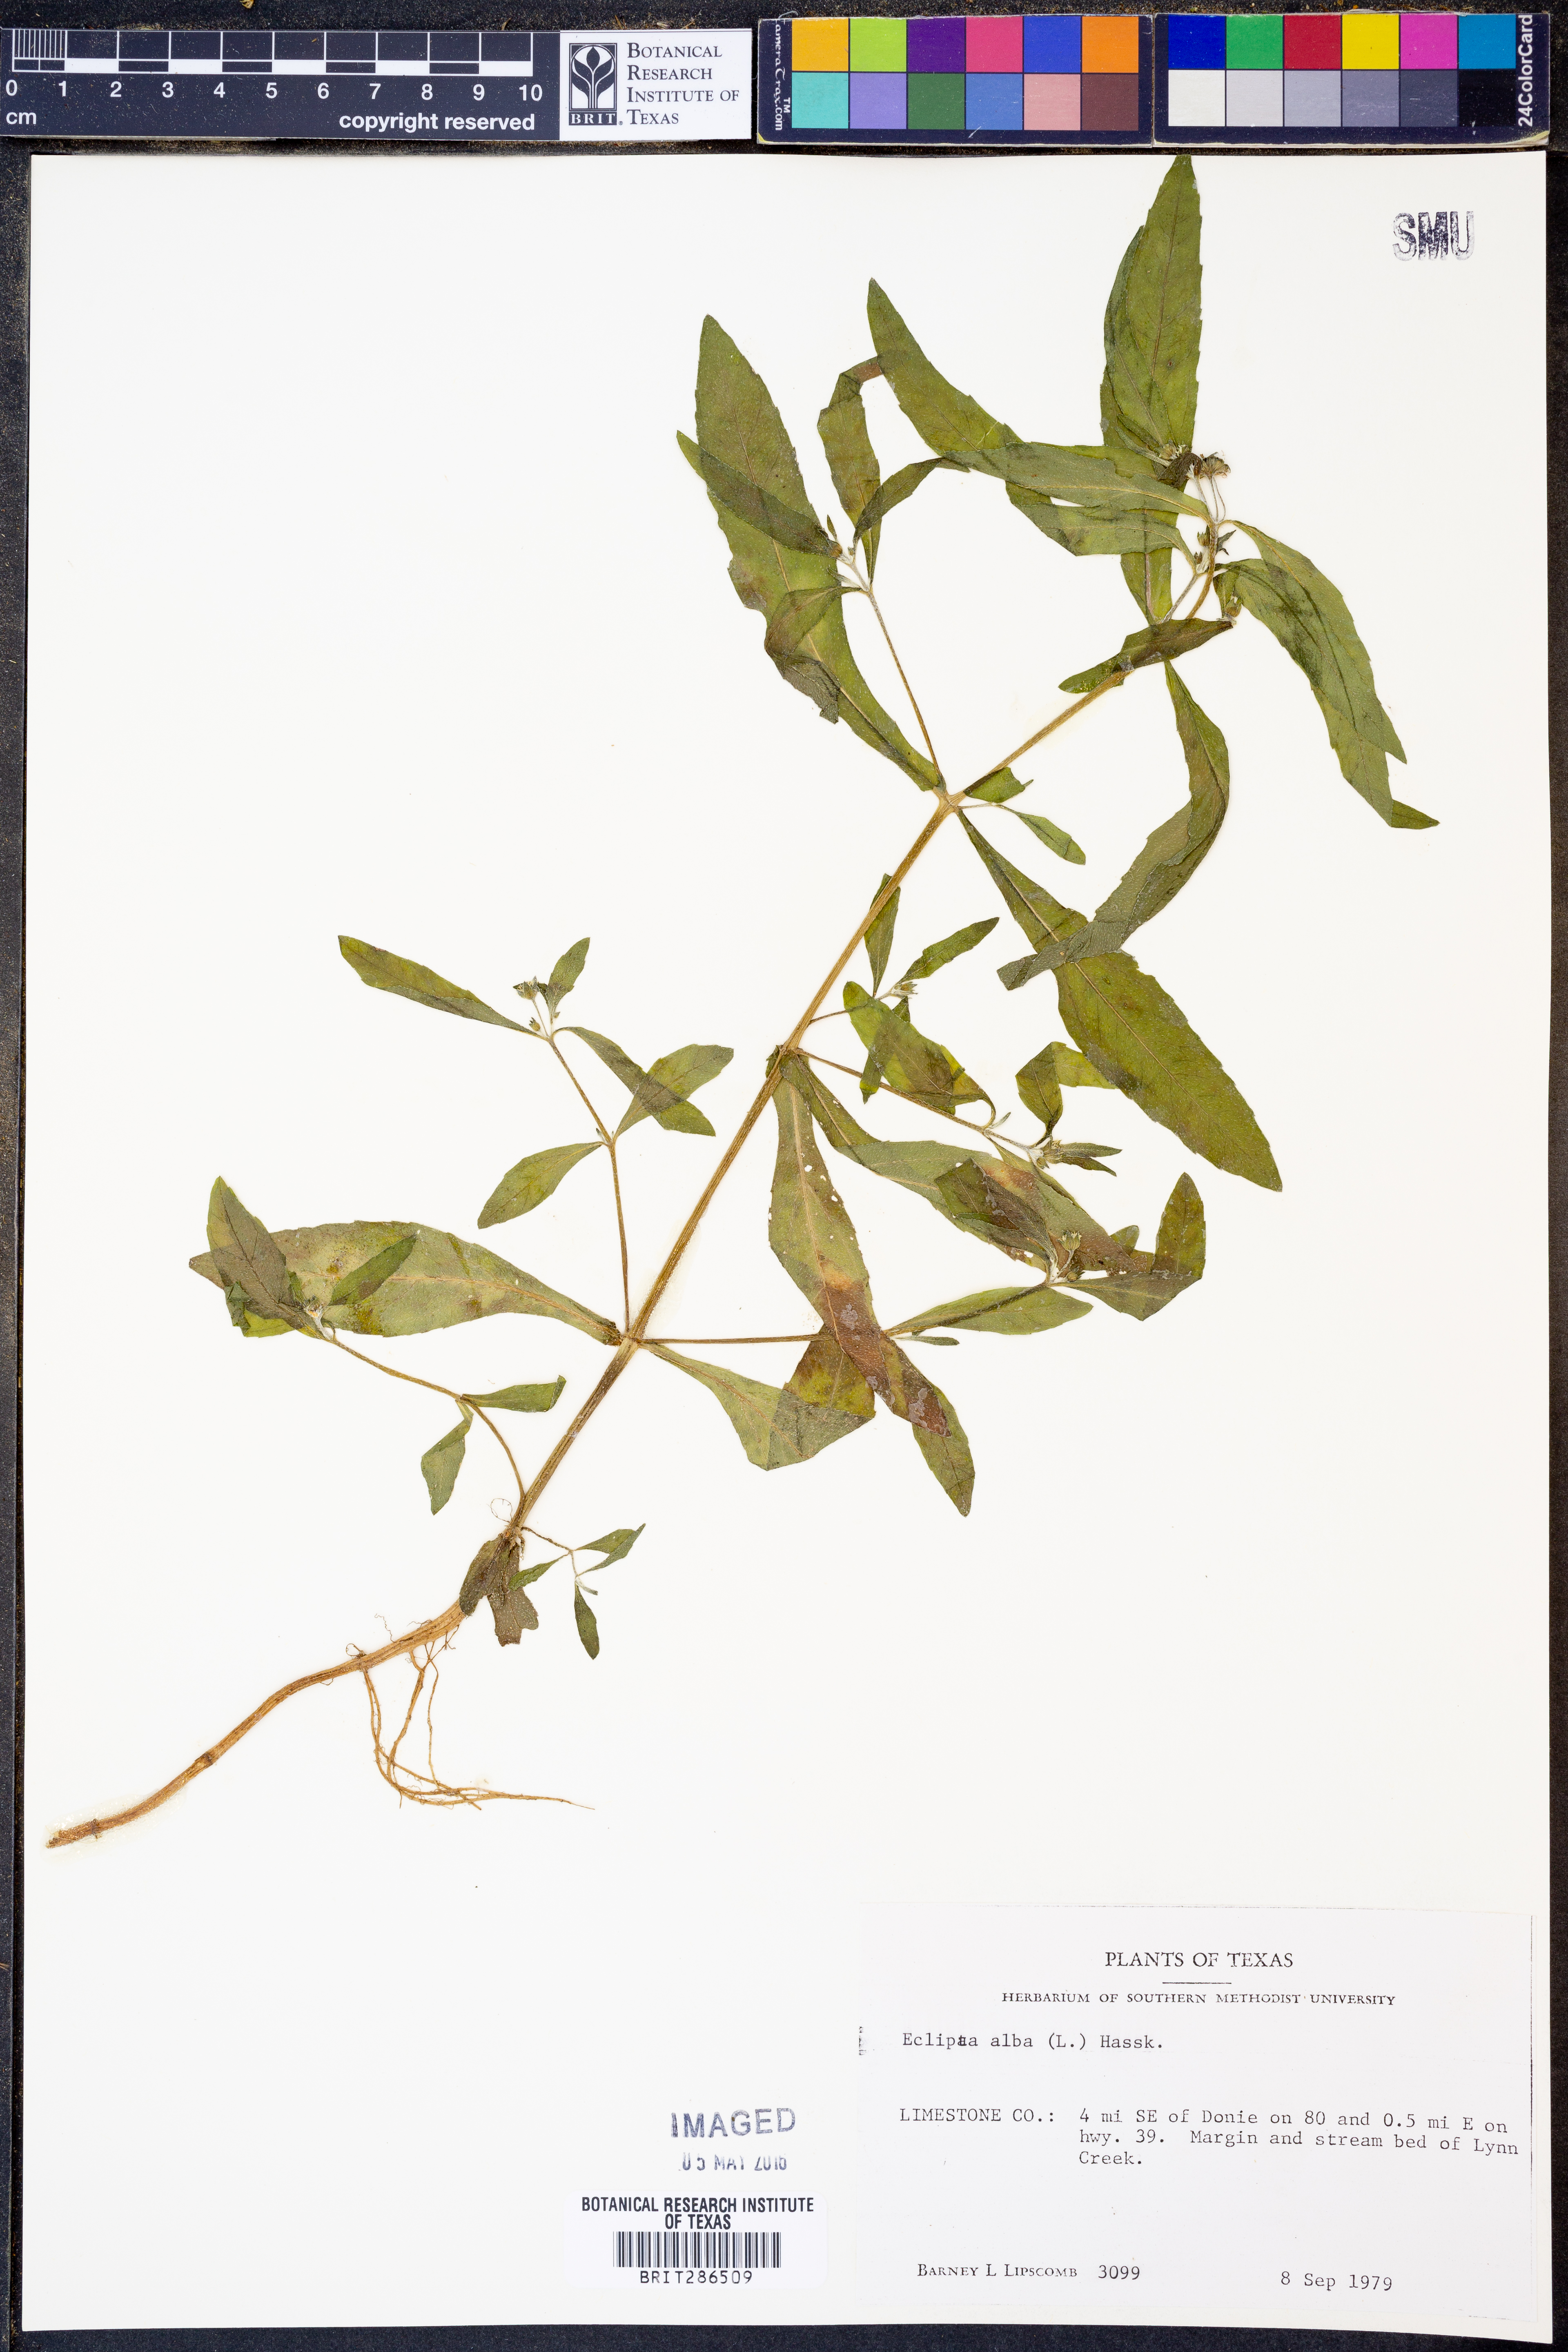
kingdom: Plantae
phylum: Tracheophyta
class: Magnoliopsida
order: Asterales
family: Asteraceae
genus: Eclipta
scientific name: Eclipta alba
